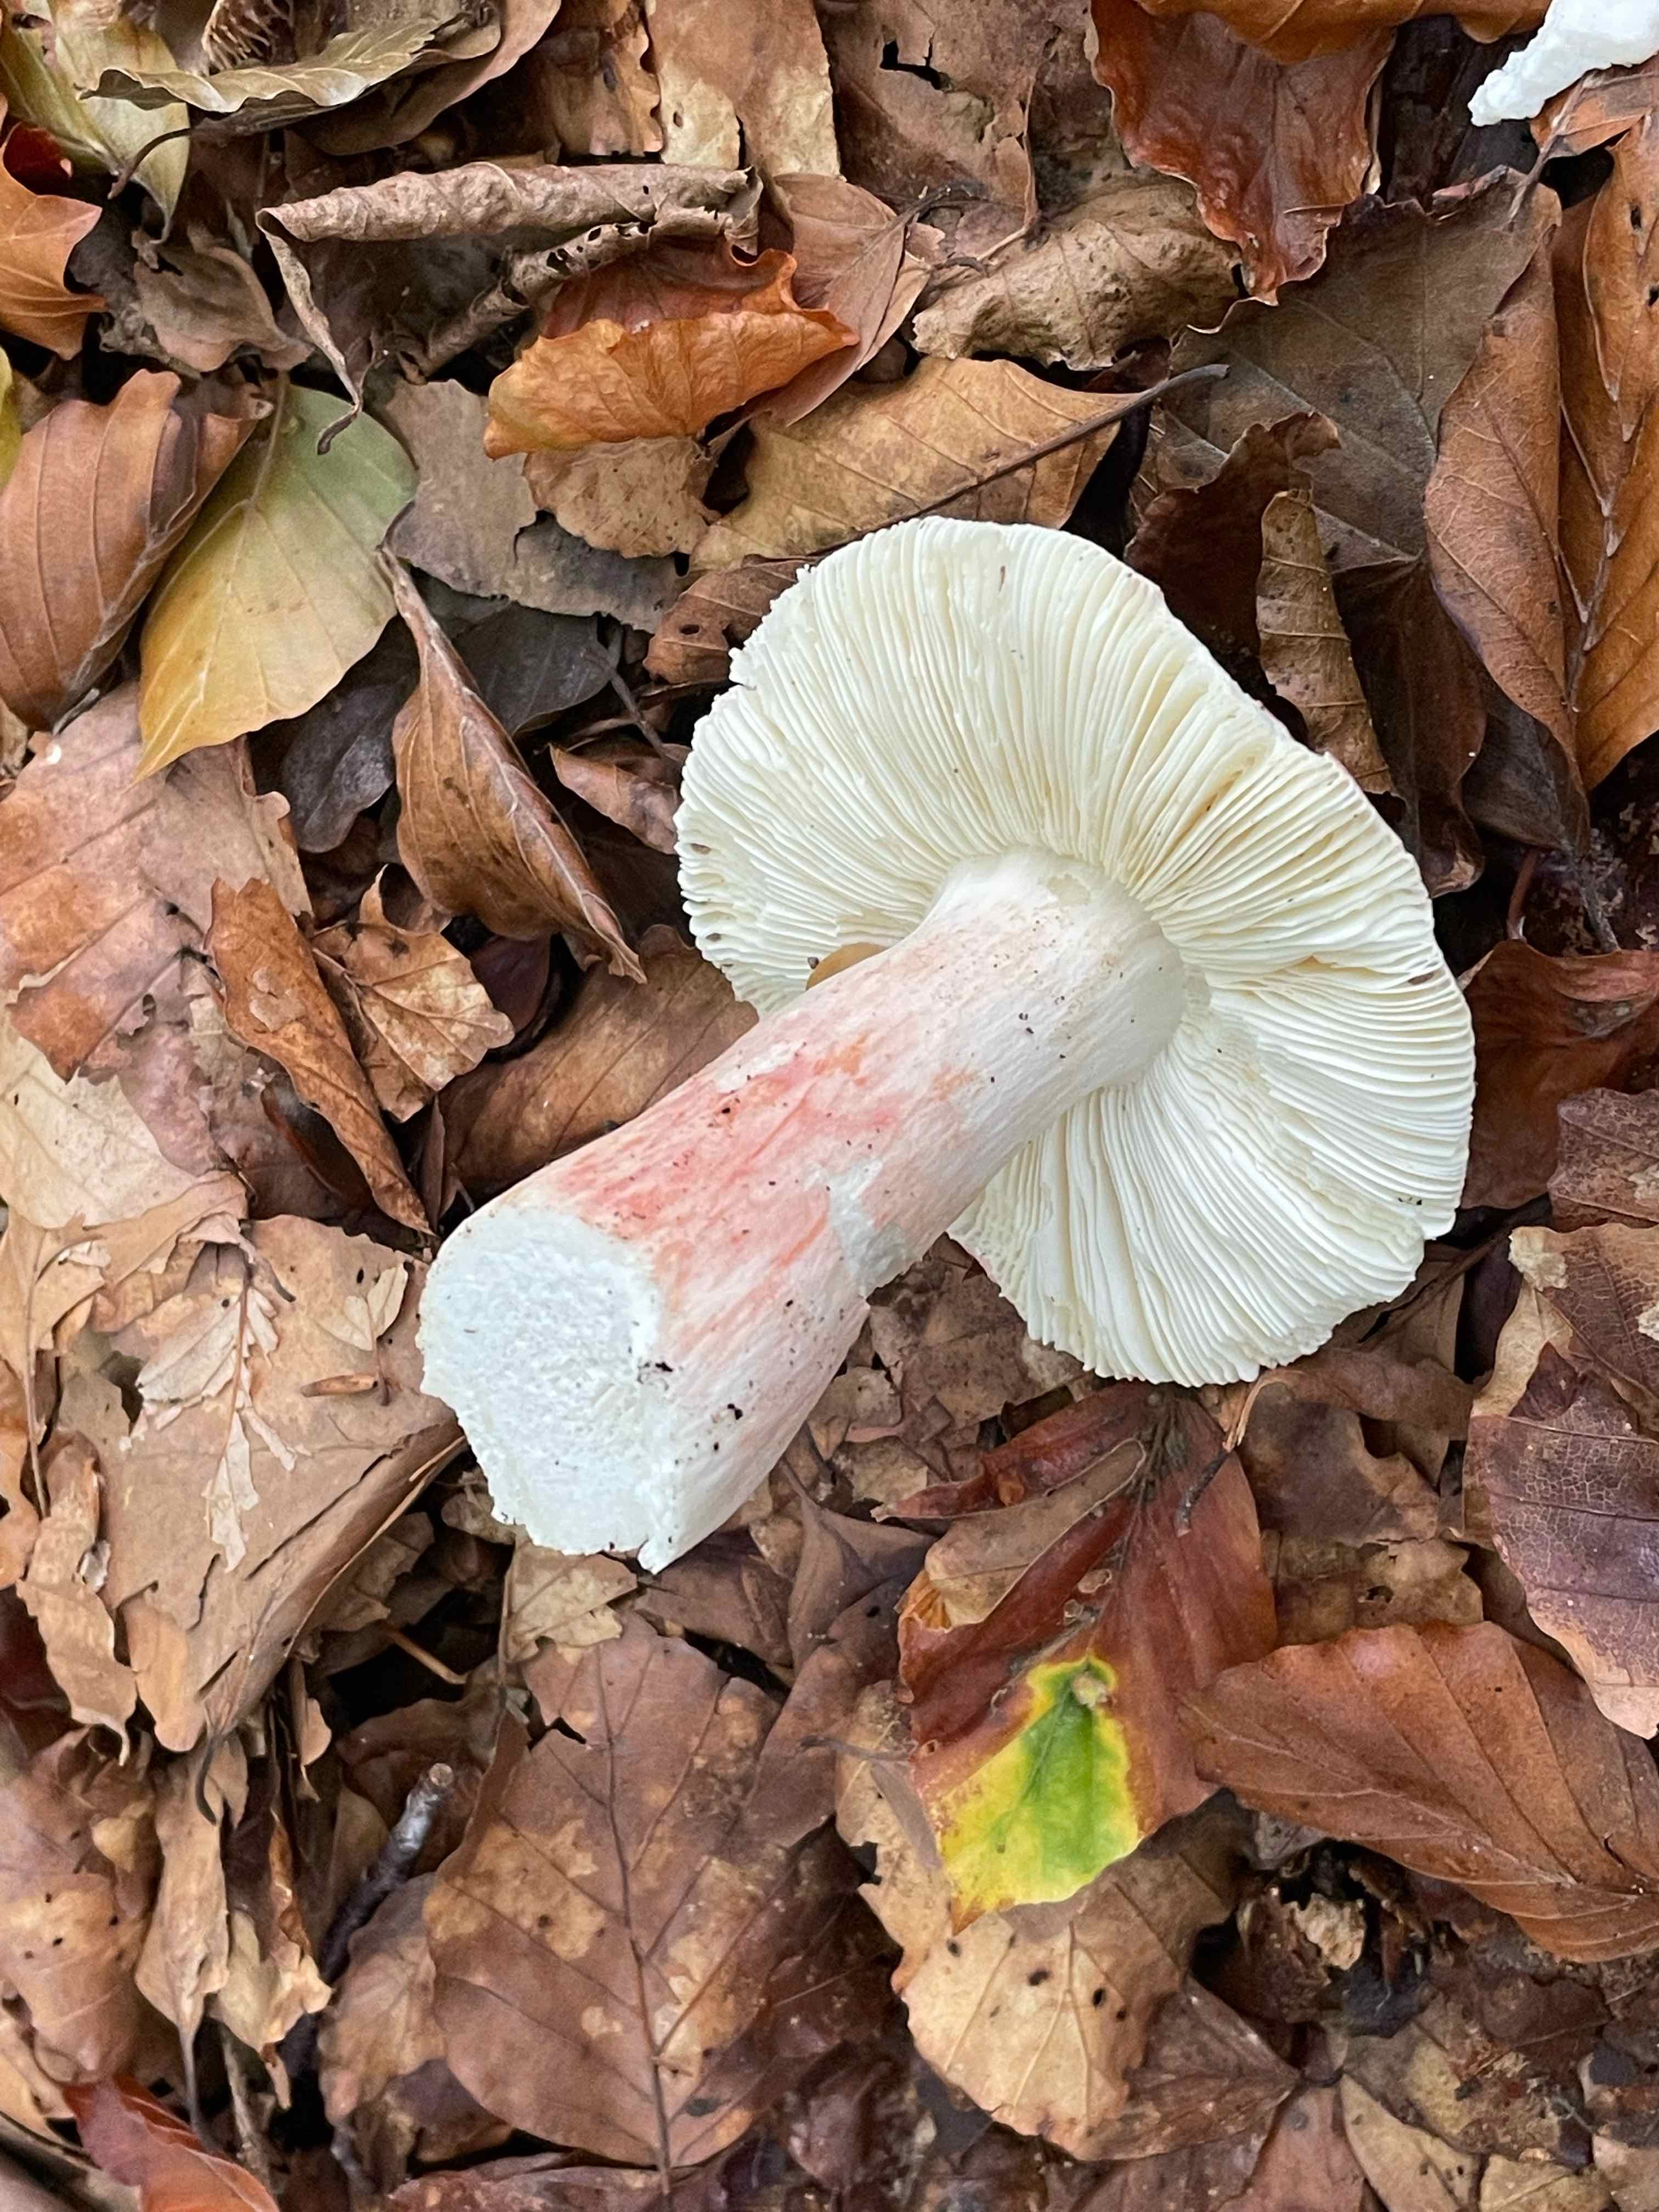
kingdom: Fungi
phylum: Basidiomycota
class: Agaricomycetes
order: Russulales
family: Russulaceae
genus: Russula
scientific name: Russula
